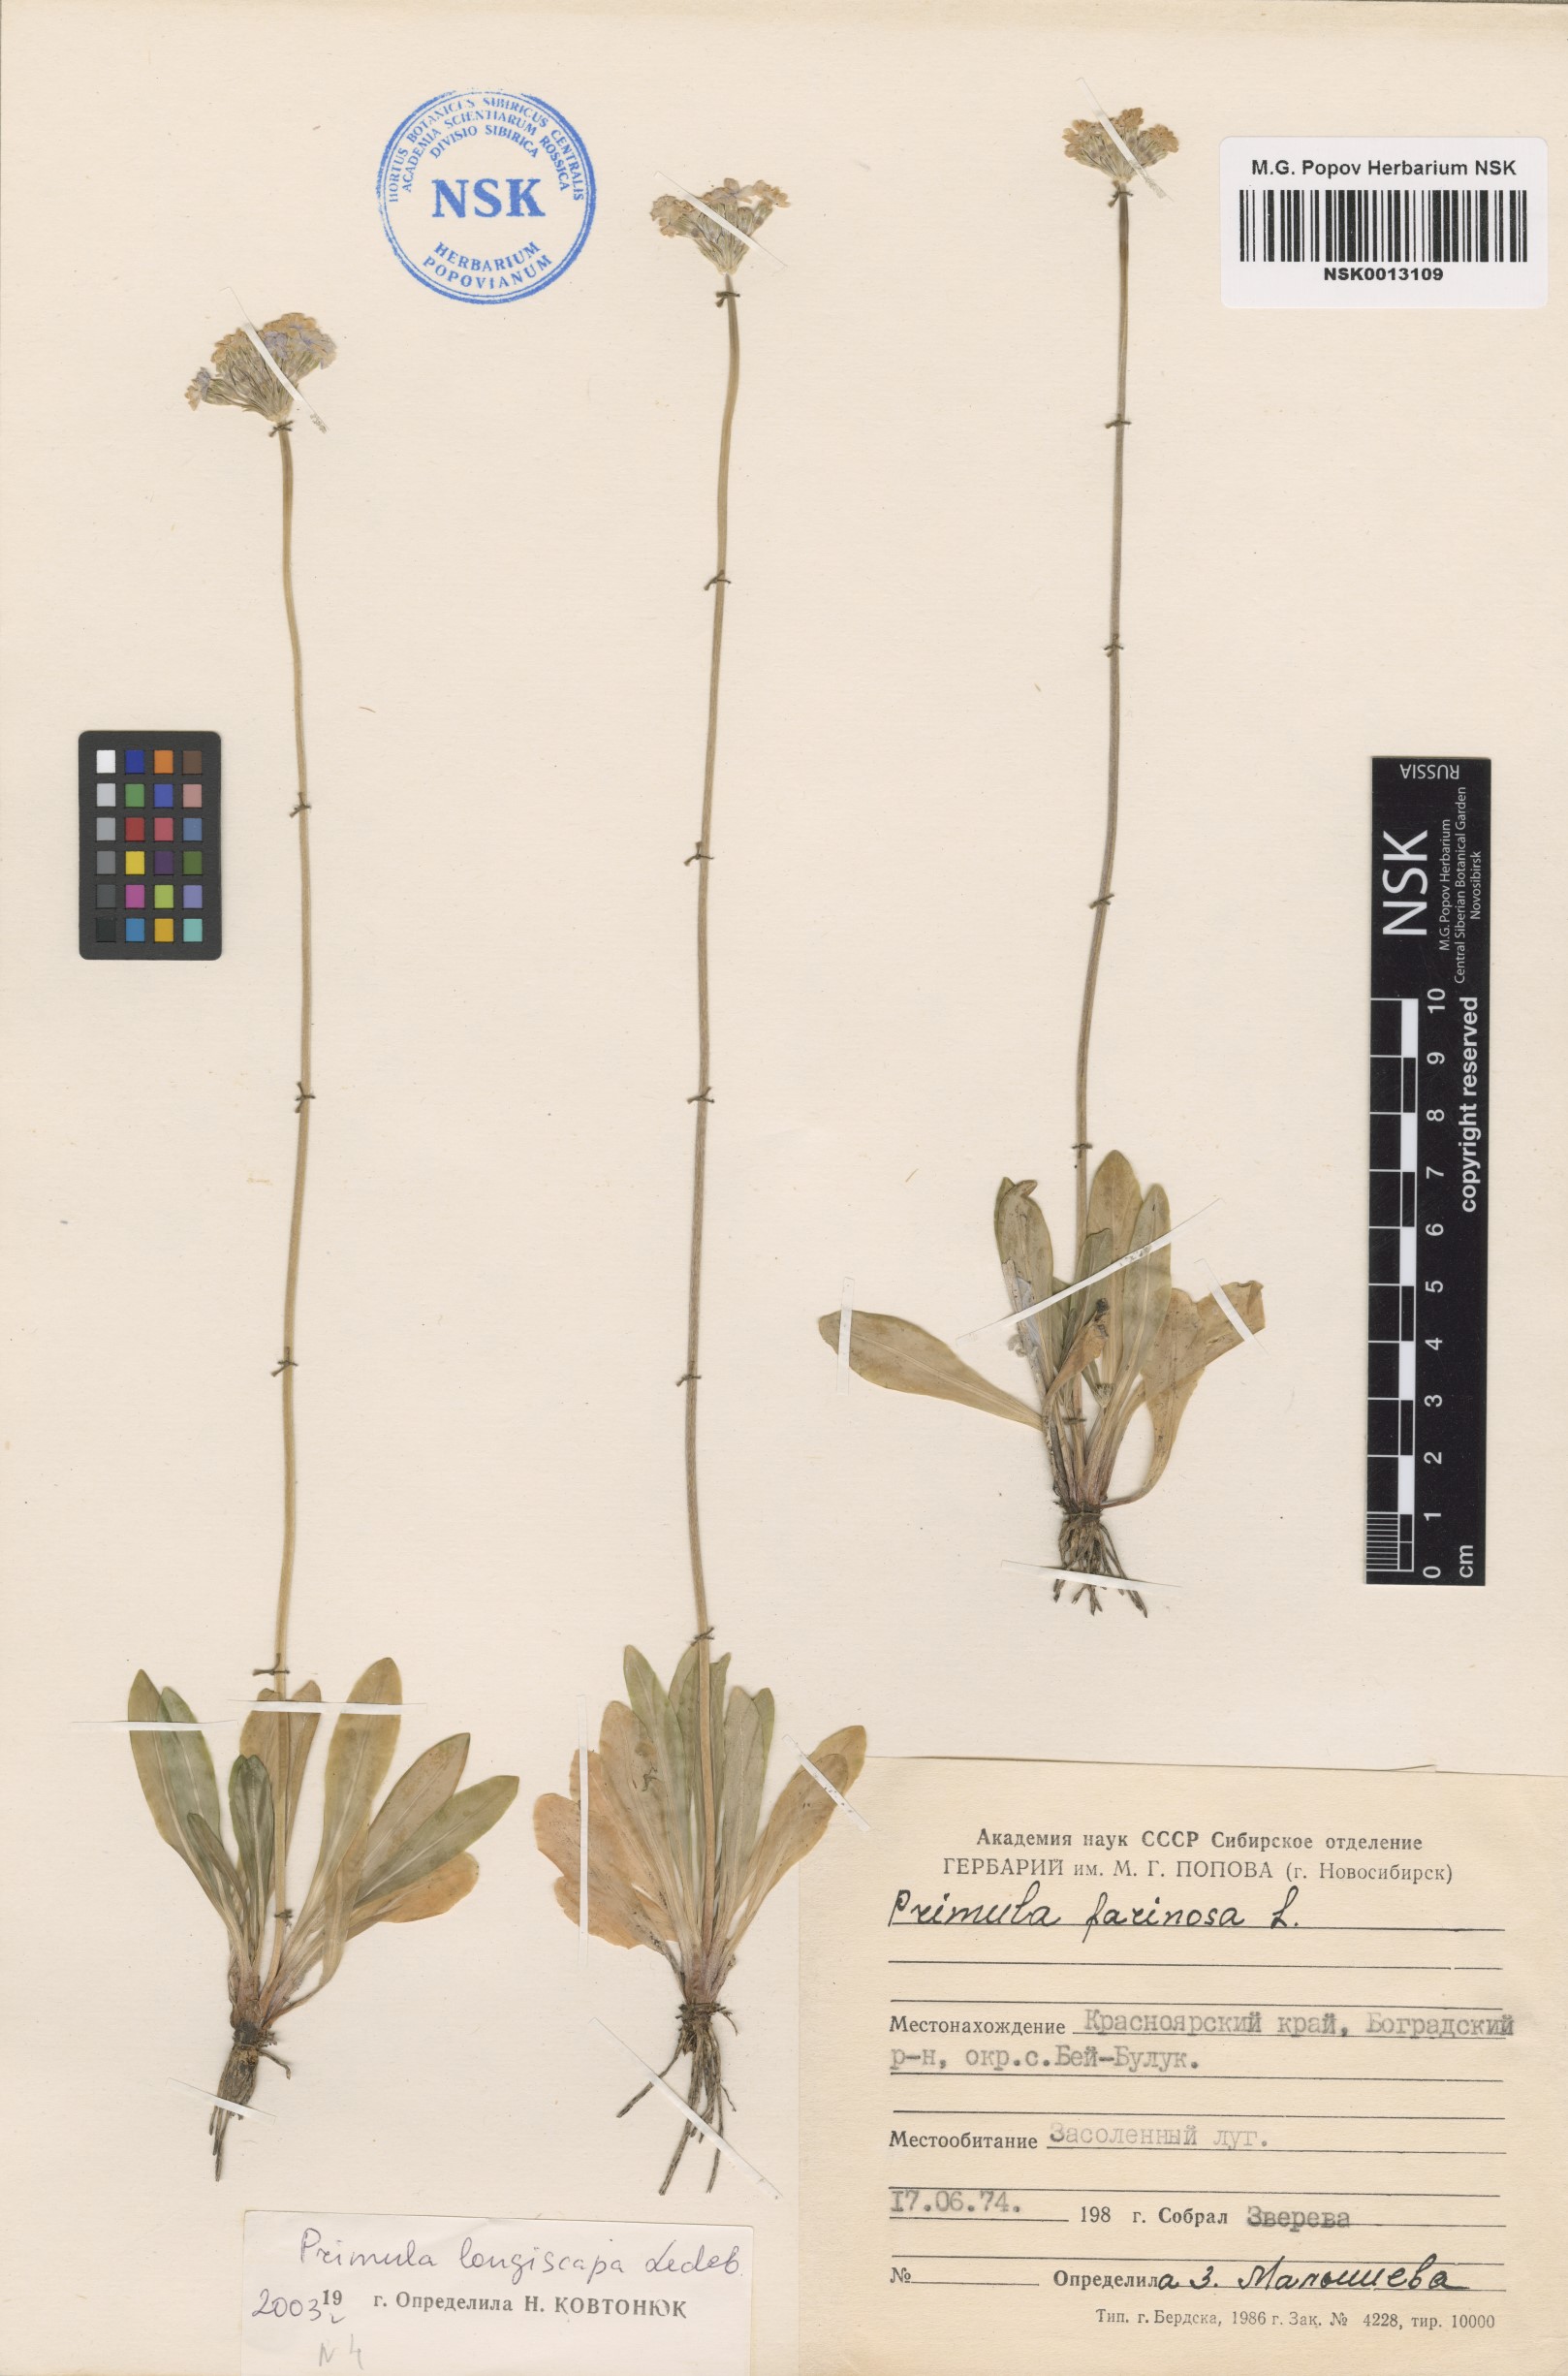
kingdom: Plantae
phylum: Tracheophyta
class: Magnoliopsida
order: Ericales
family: Primulaceae
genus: Primula
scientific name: Primula longiscapa
